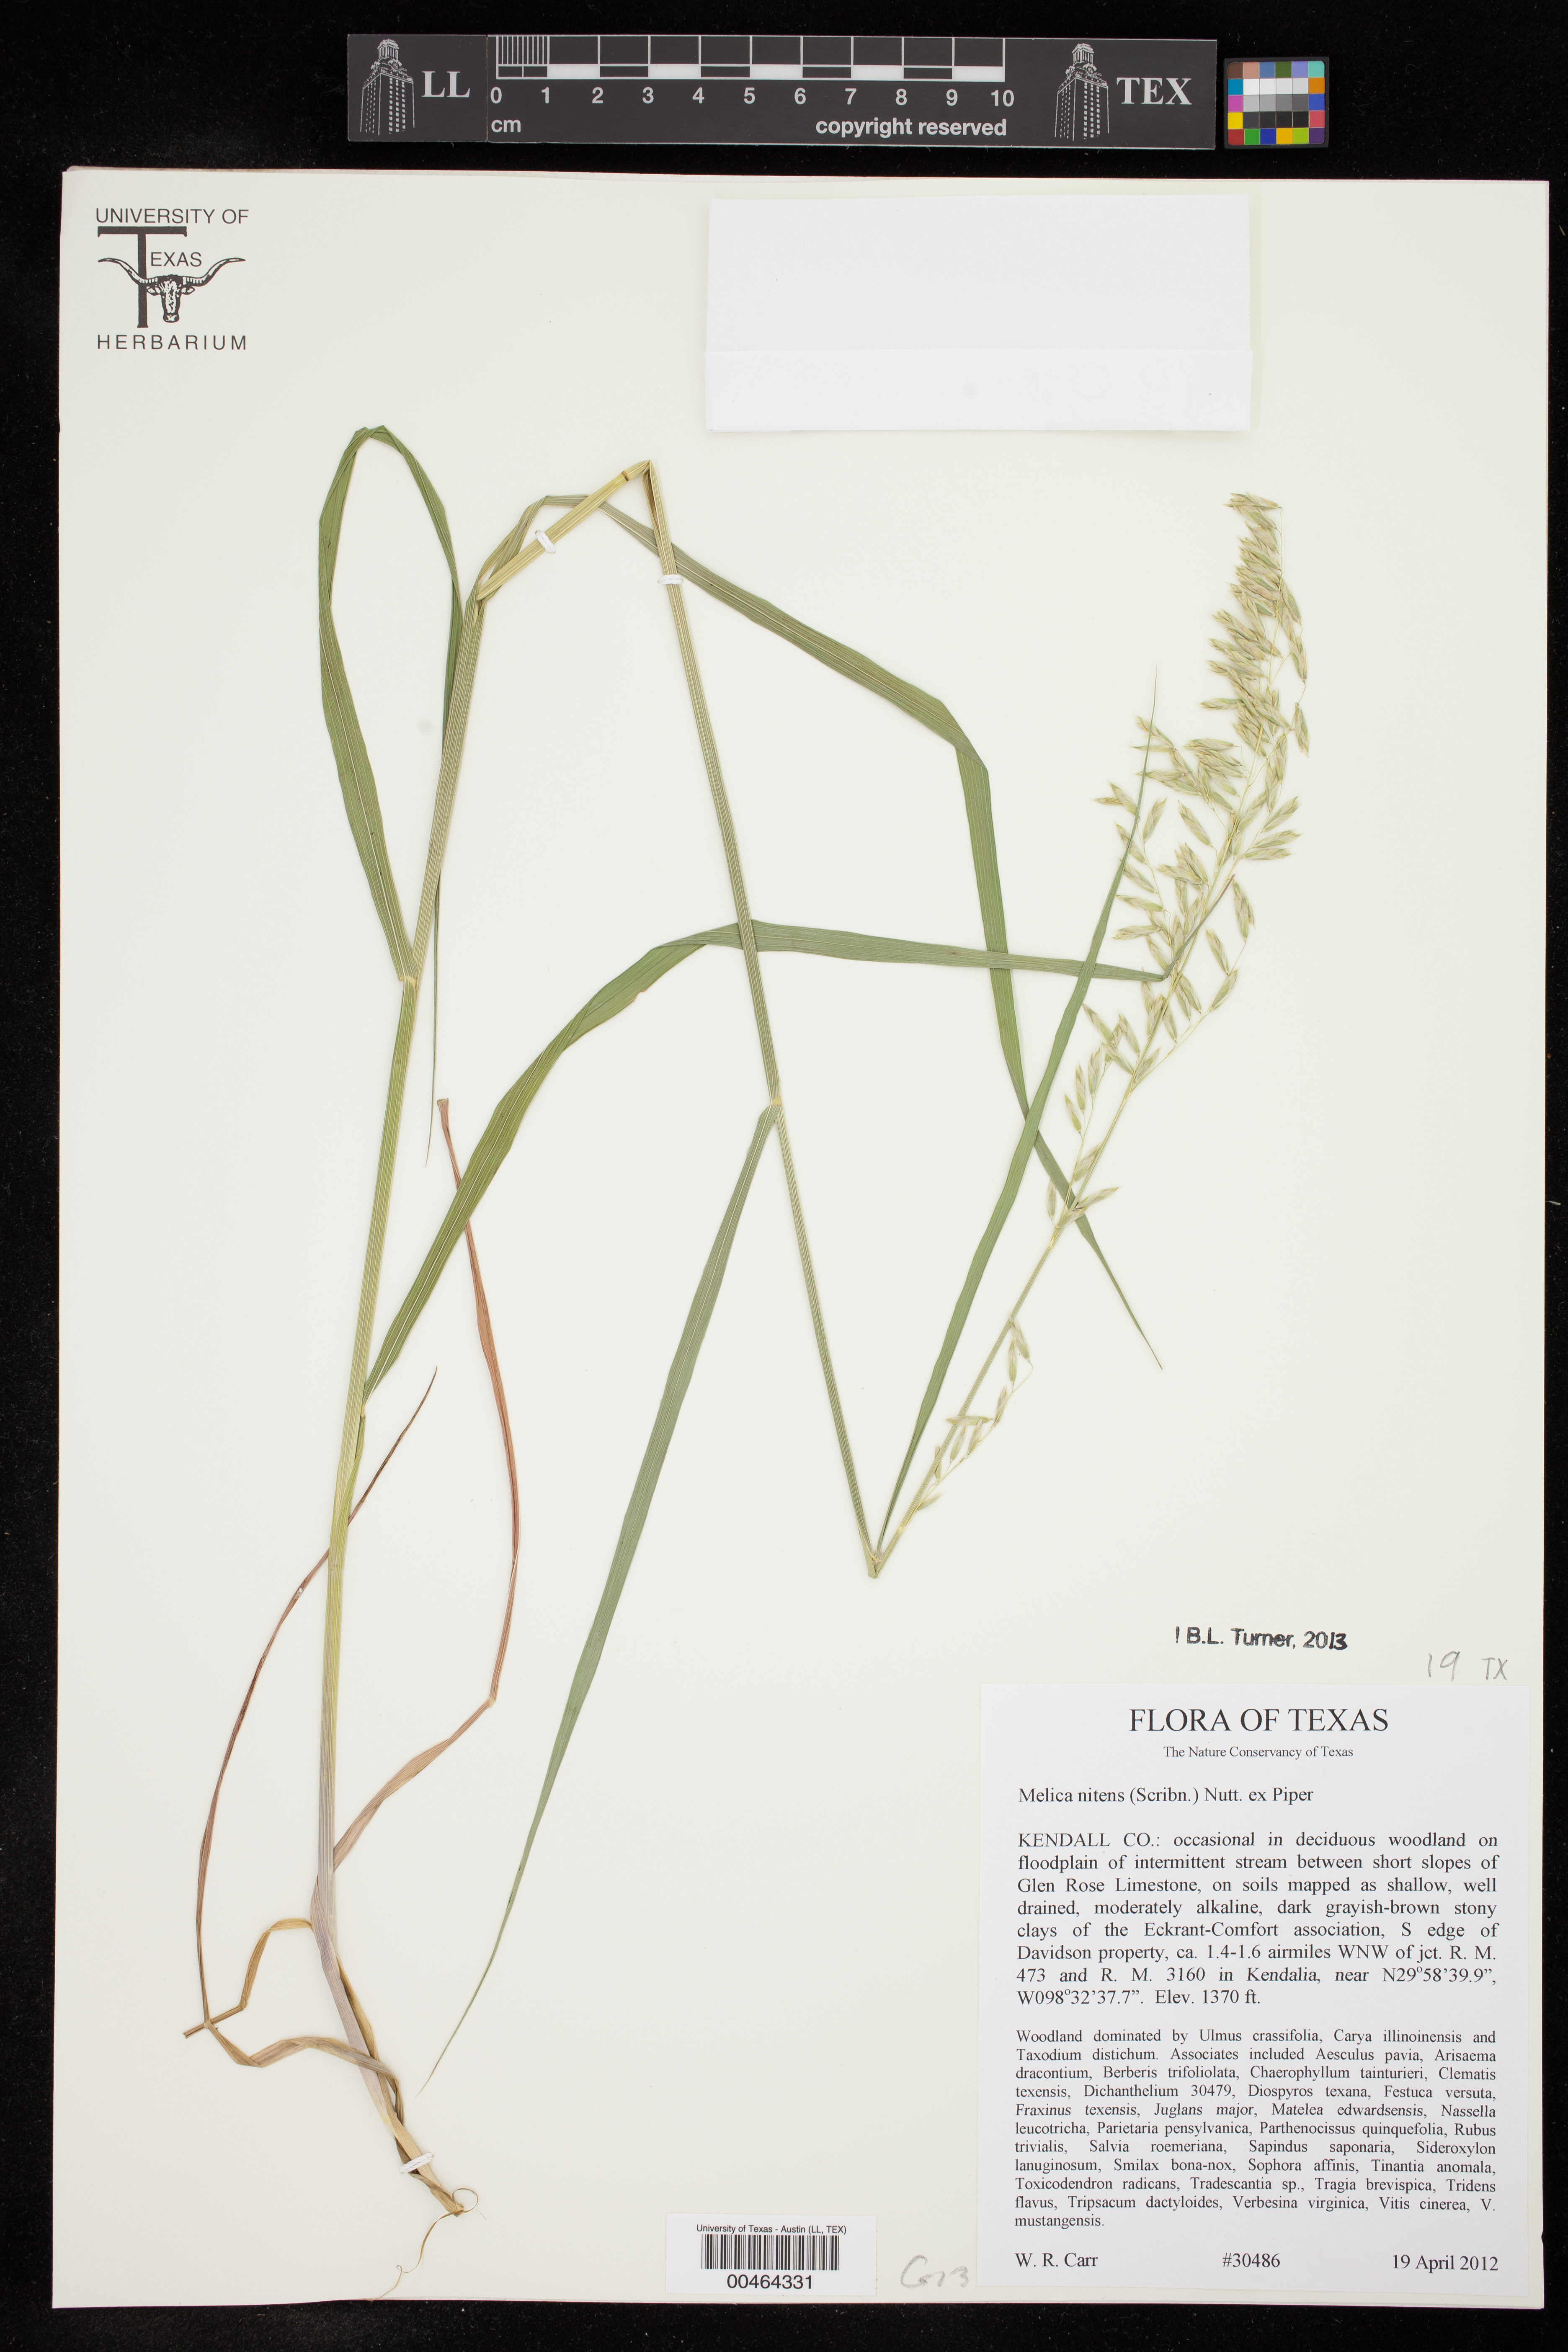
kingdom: Plantae
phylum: Tracheophyta
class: Liliopsida
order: Poales
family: Poaceae
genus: Melica
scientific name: Melica nitens
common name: Three-flower melic
